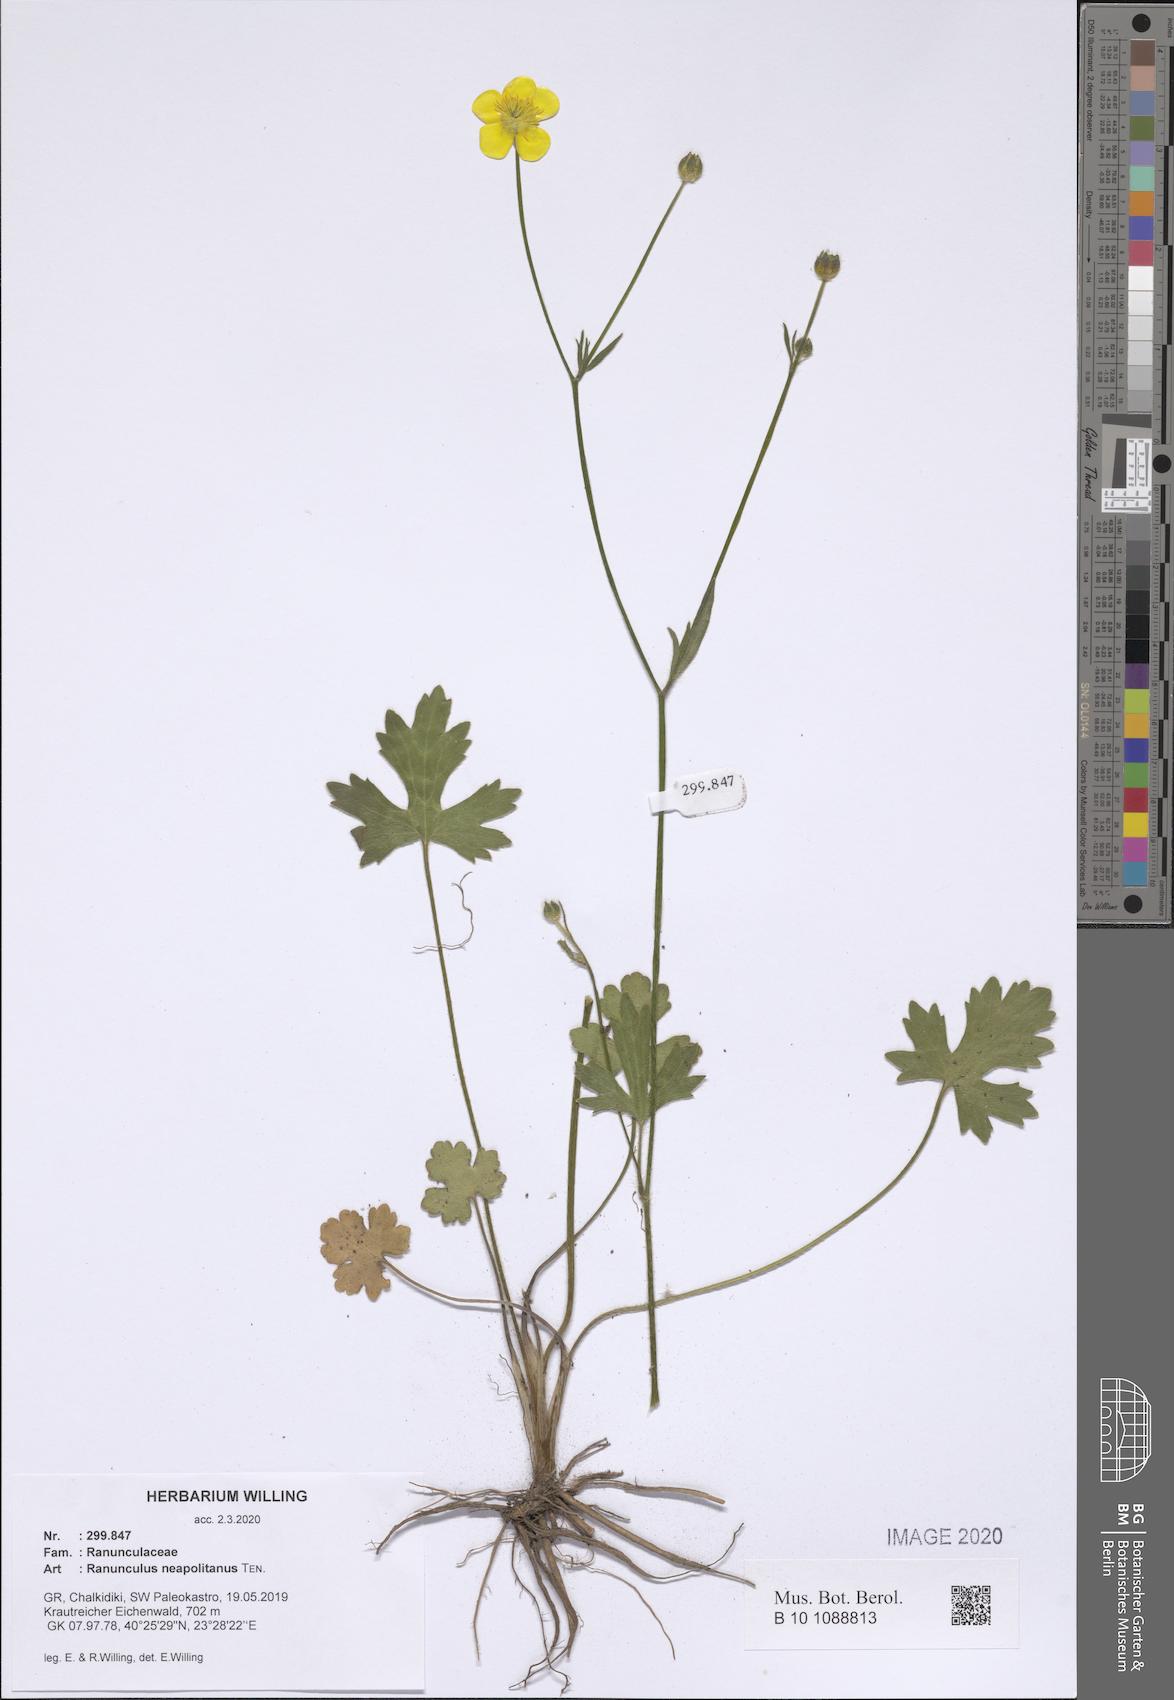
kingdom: Plantae
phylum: Tracheophyta
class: Magnoliopsida
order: Ranunculales
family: Ranunculaceae
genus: Ranunculus
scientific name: Ranunculus neapolitanus
